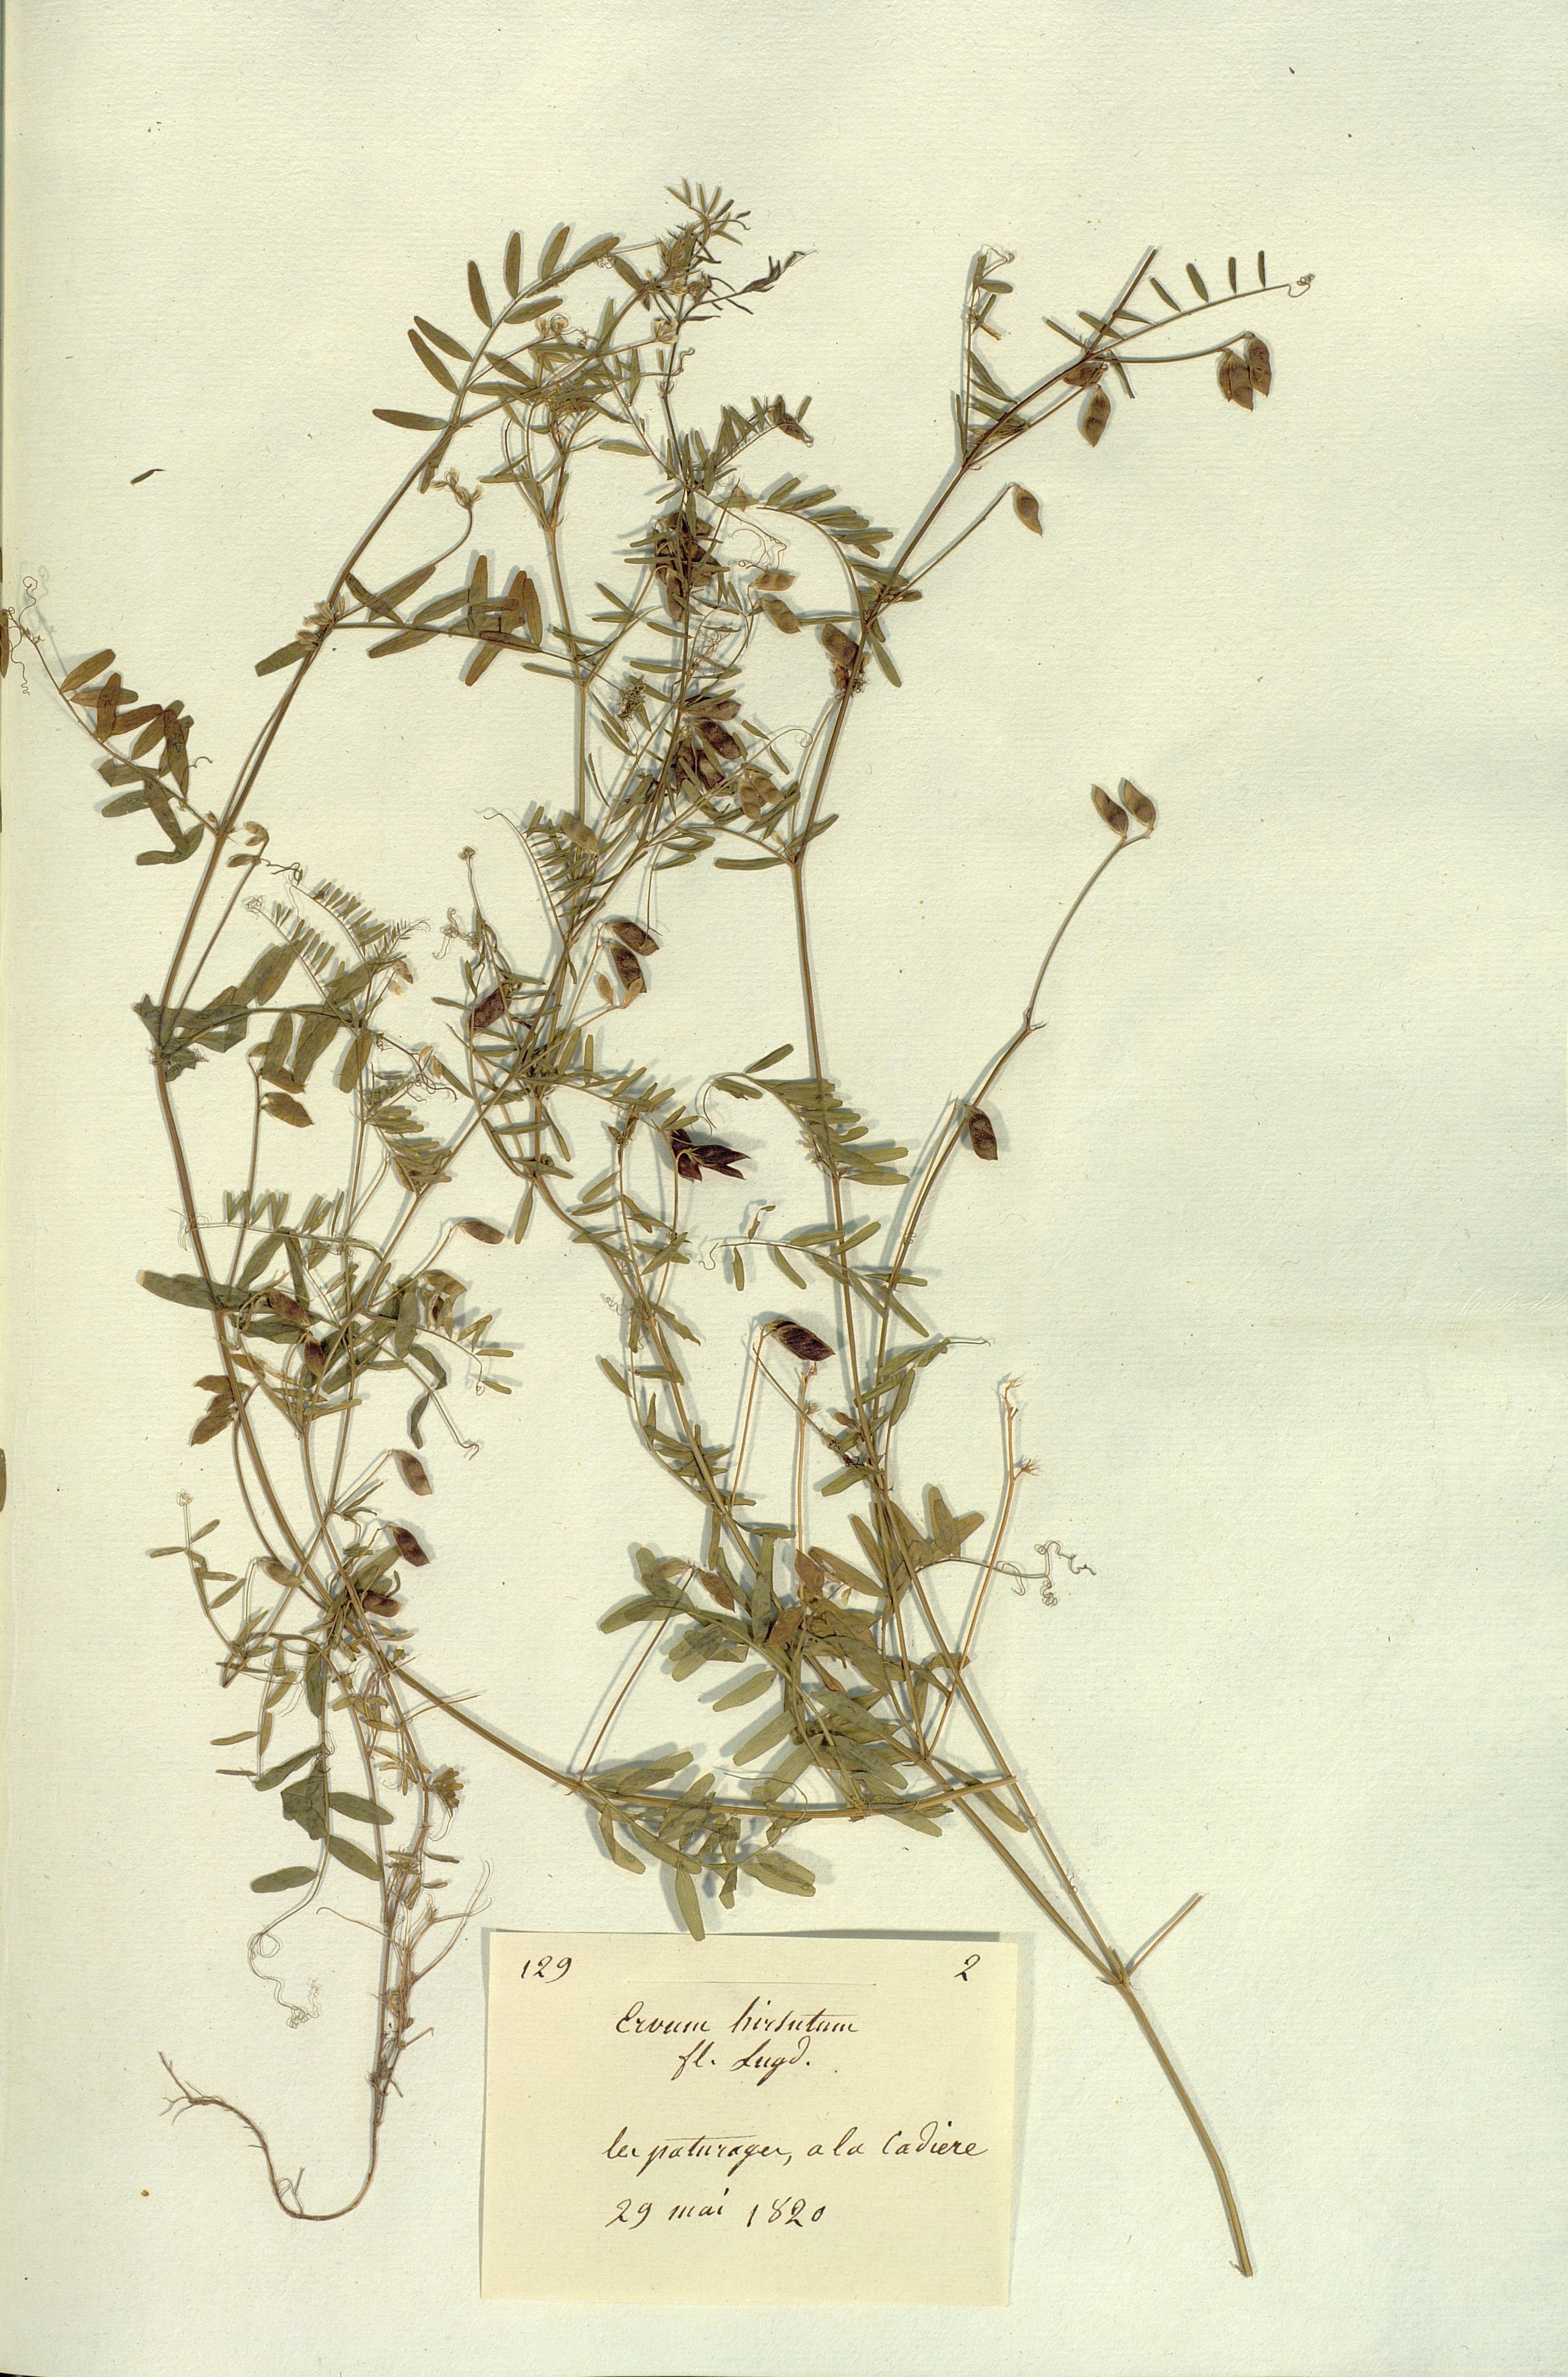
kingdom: Plantae
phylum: Tracheophyta
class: Magnoliopsida
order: Fabales
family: Fabaceae
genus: Vicia
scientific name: Vicia hirsuta
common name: Tiny vetch
